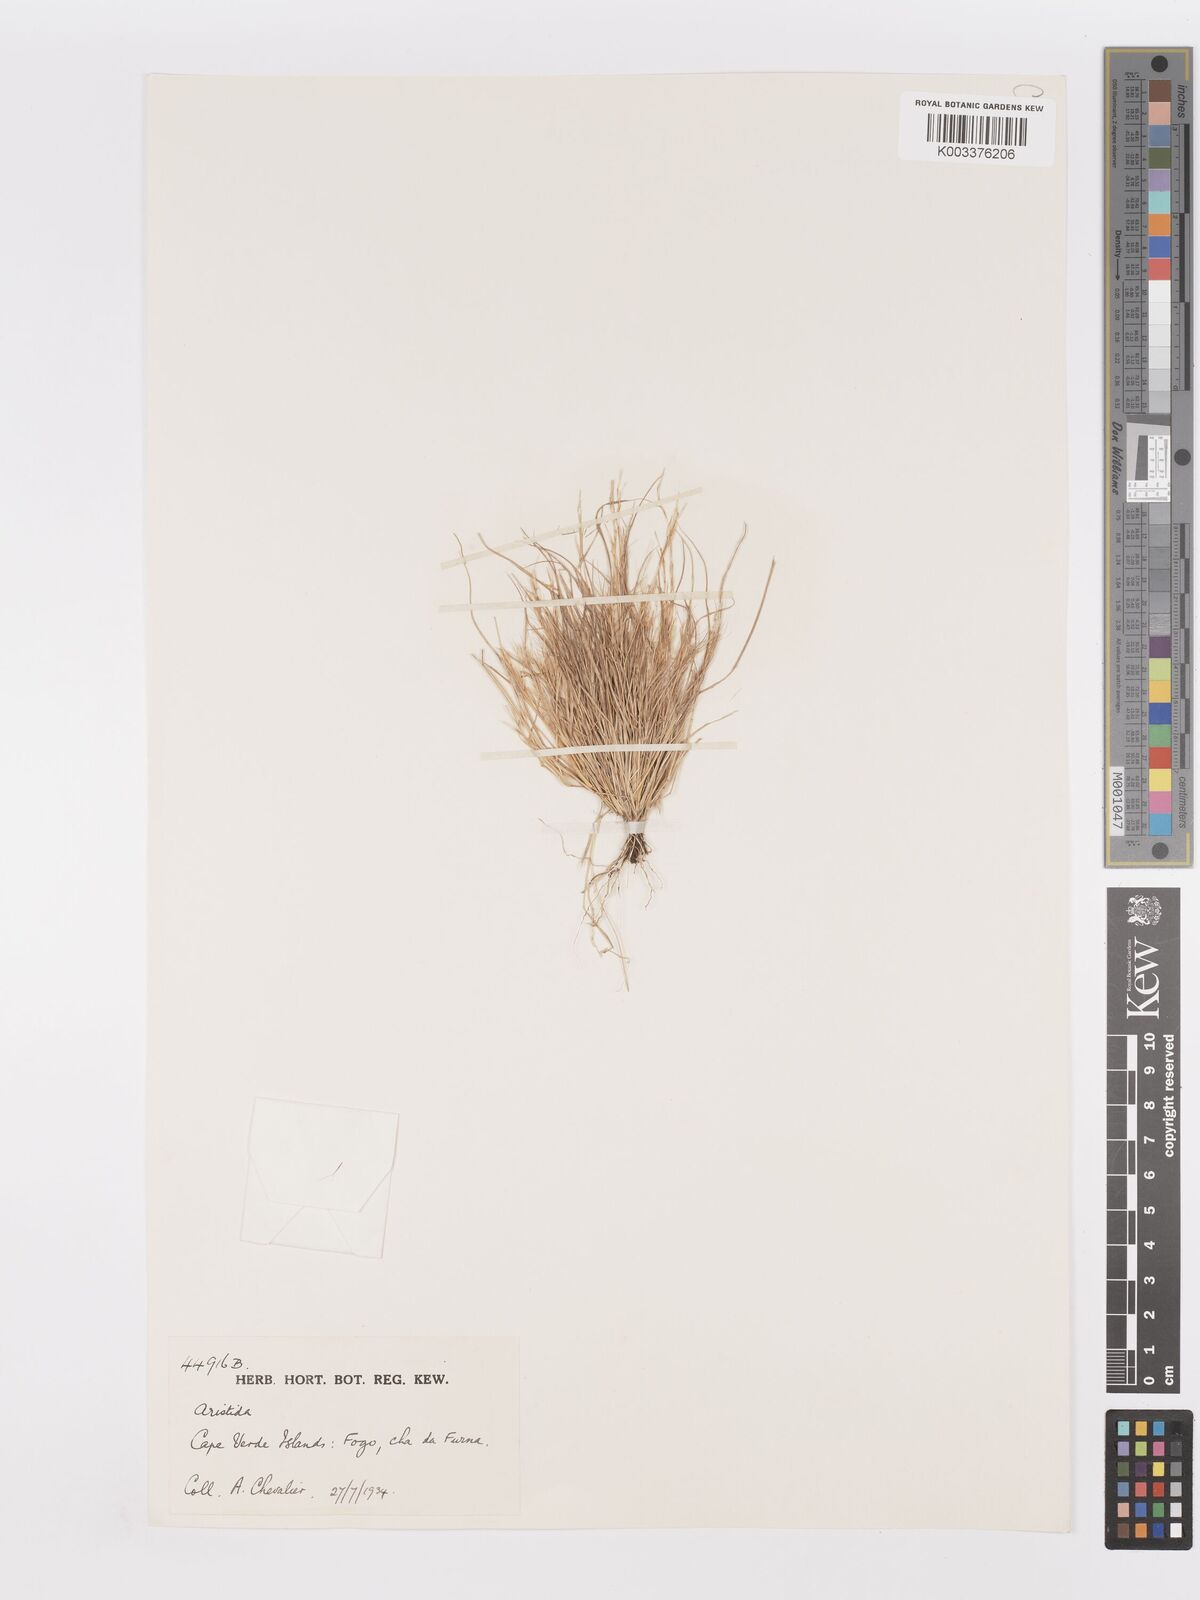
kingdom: Plantae
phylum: Tracheophyta
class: Liliopsida
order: Poales
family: Poaceae
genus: Aristida
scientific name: Aristida adscensionis
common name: Sixweeks threeawn
